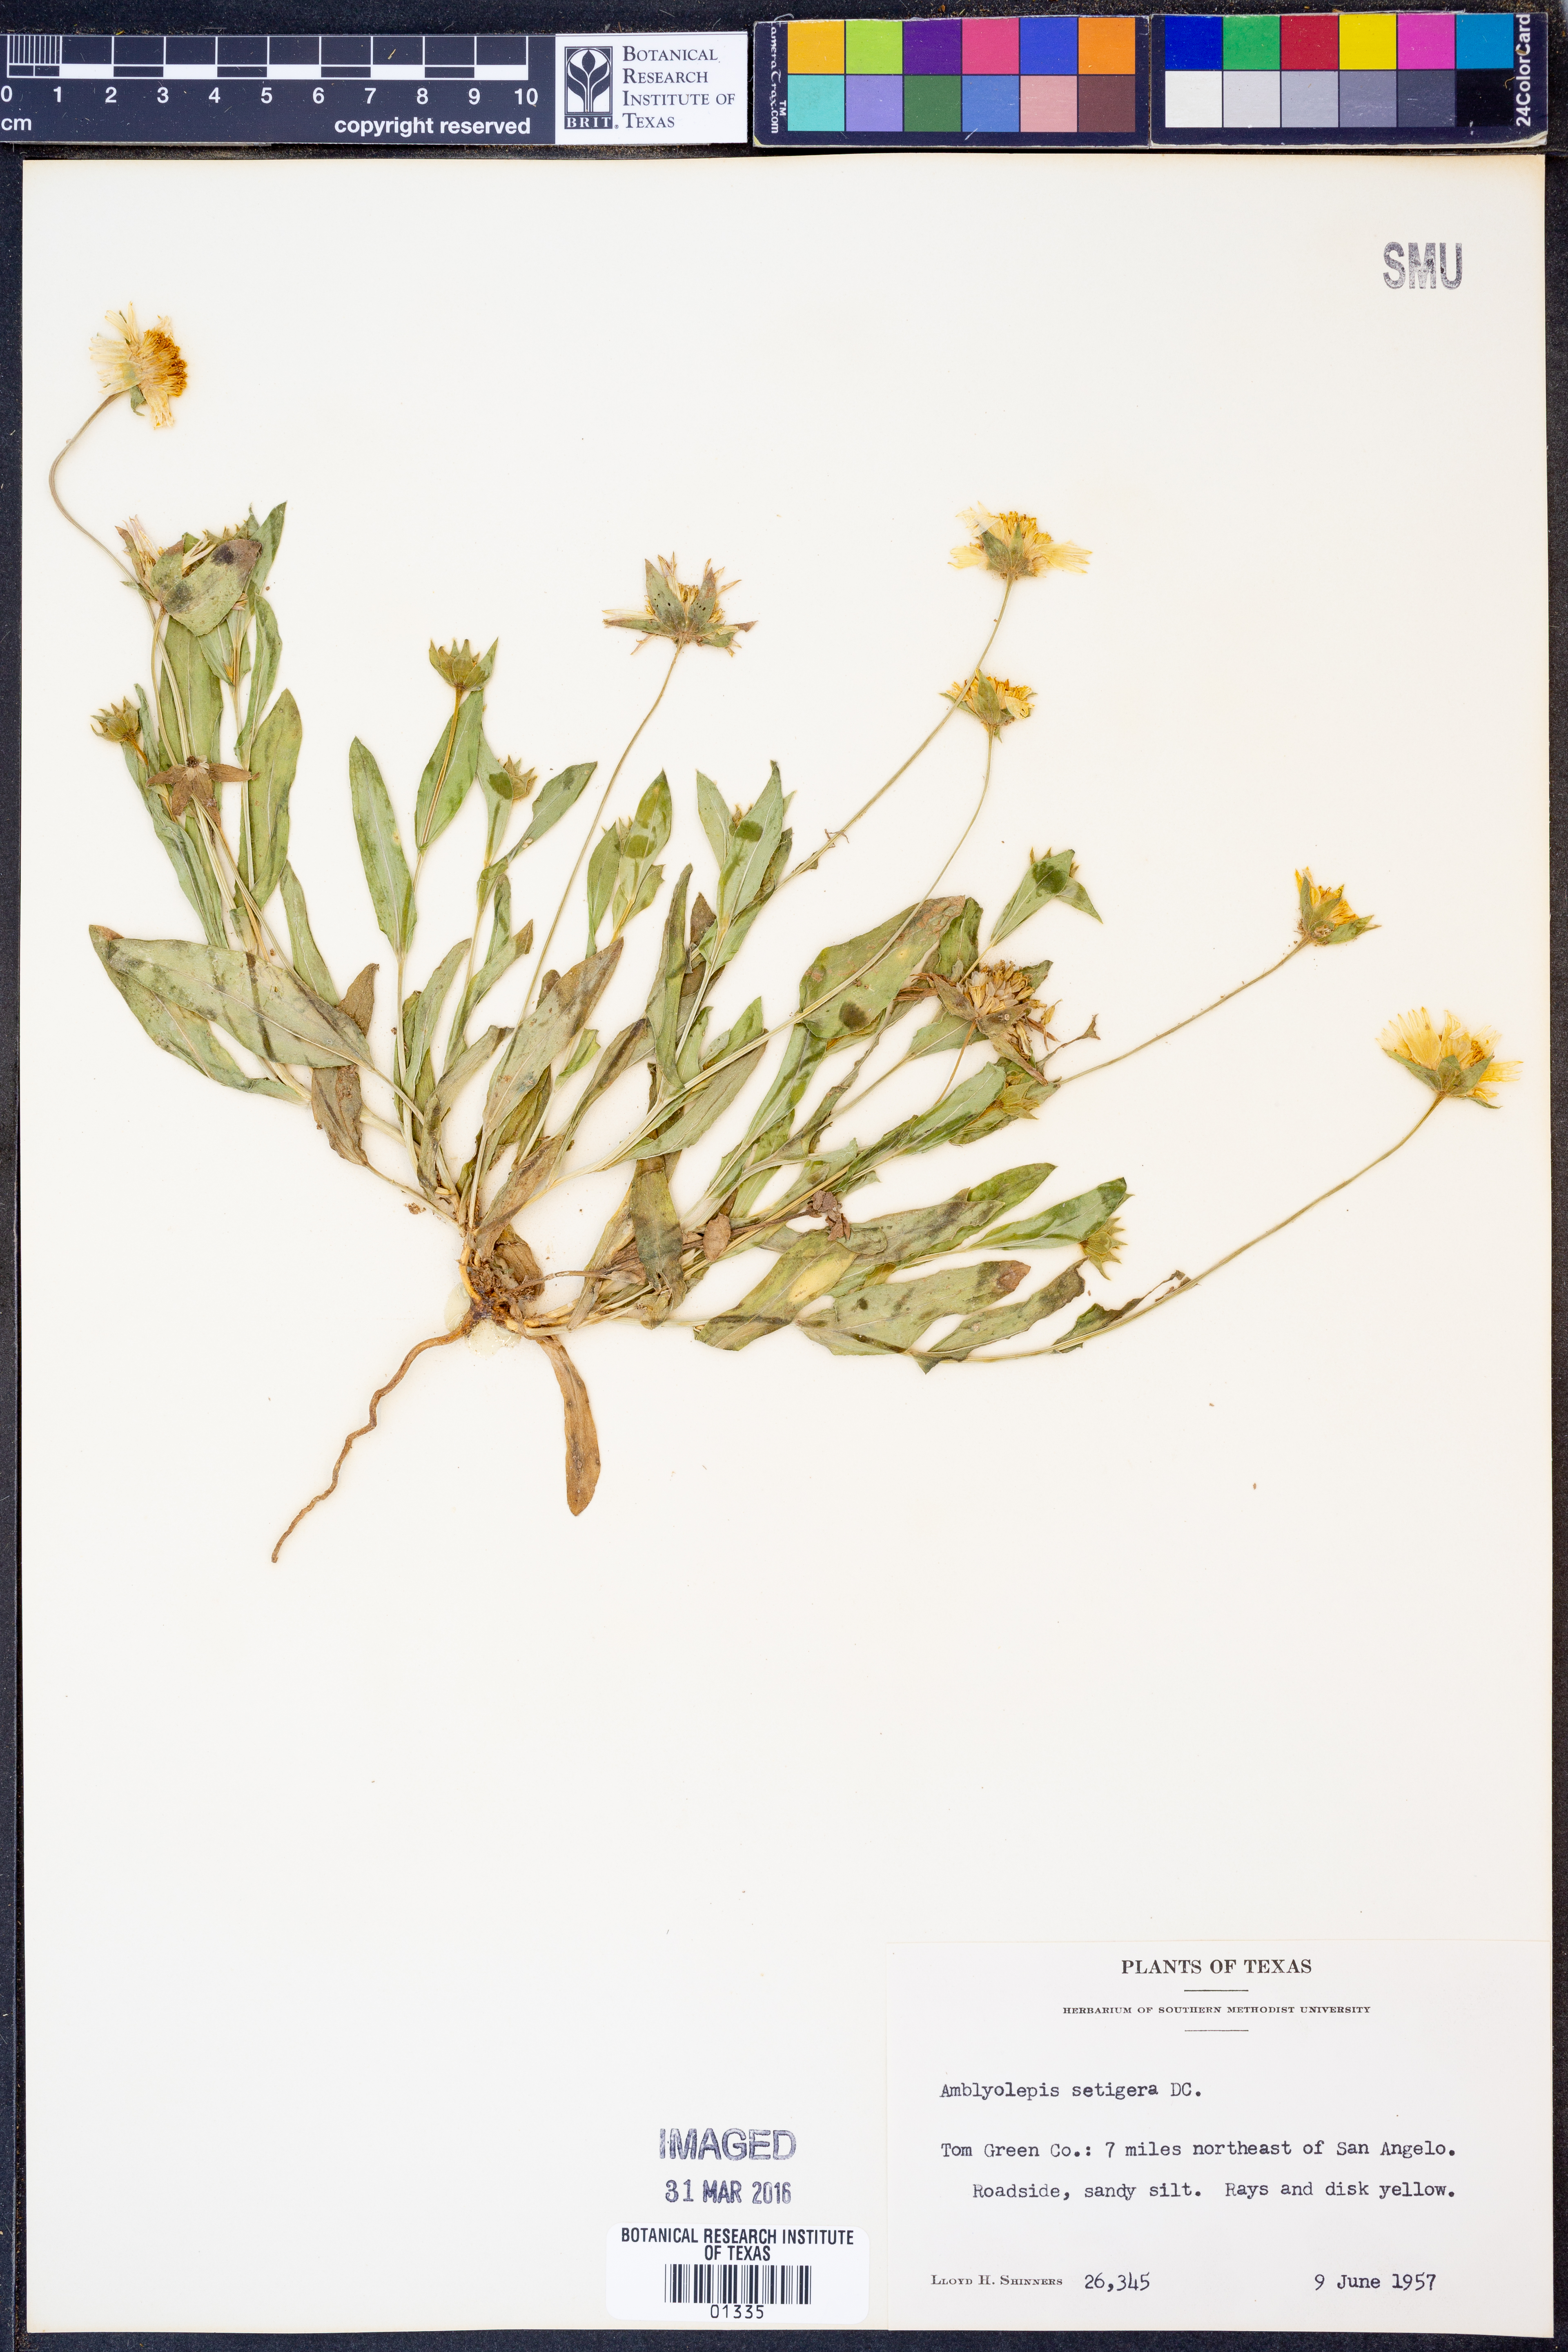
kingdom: Plantae
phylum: Tracheophyta
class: Magnoliopsida
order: Asterales
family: Asteraceae
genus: Amblyolepis
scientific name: Amblyolepis setigera
